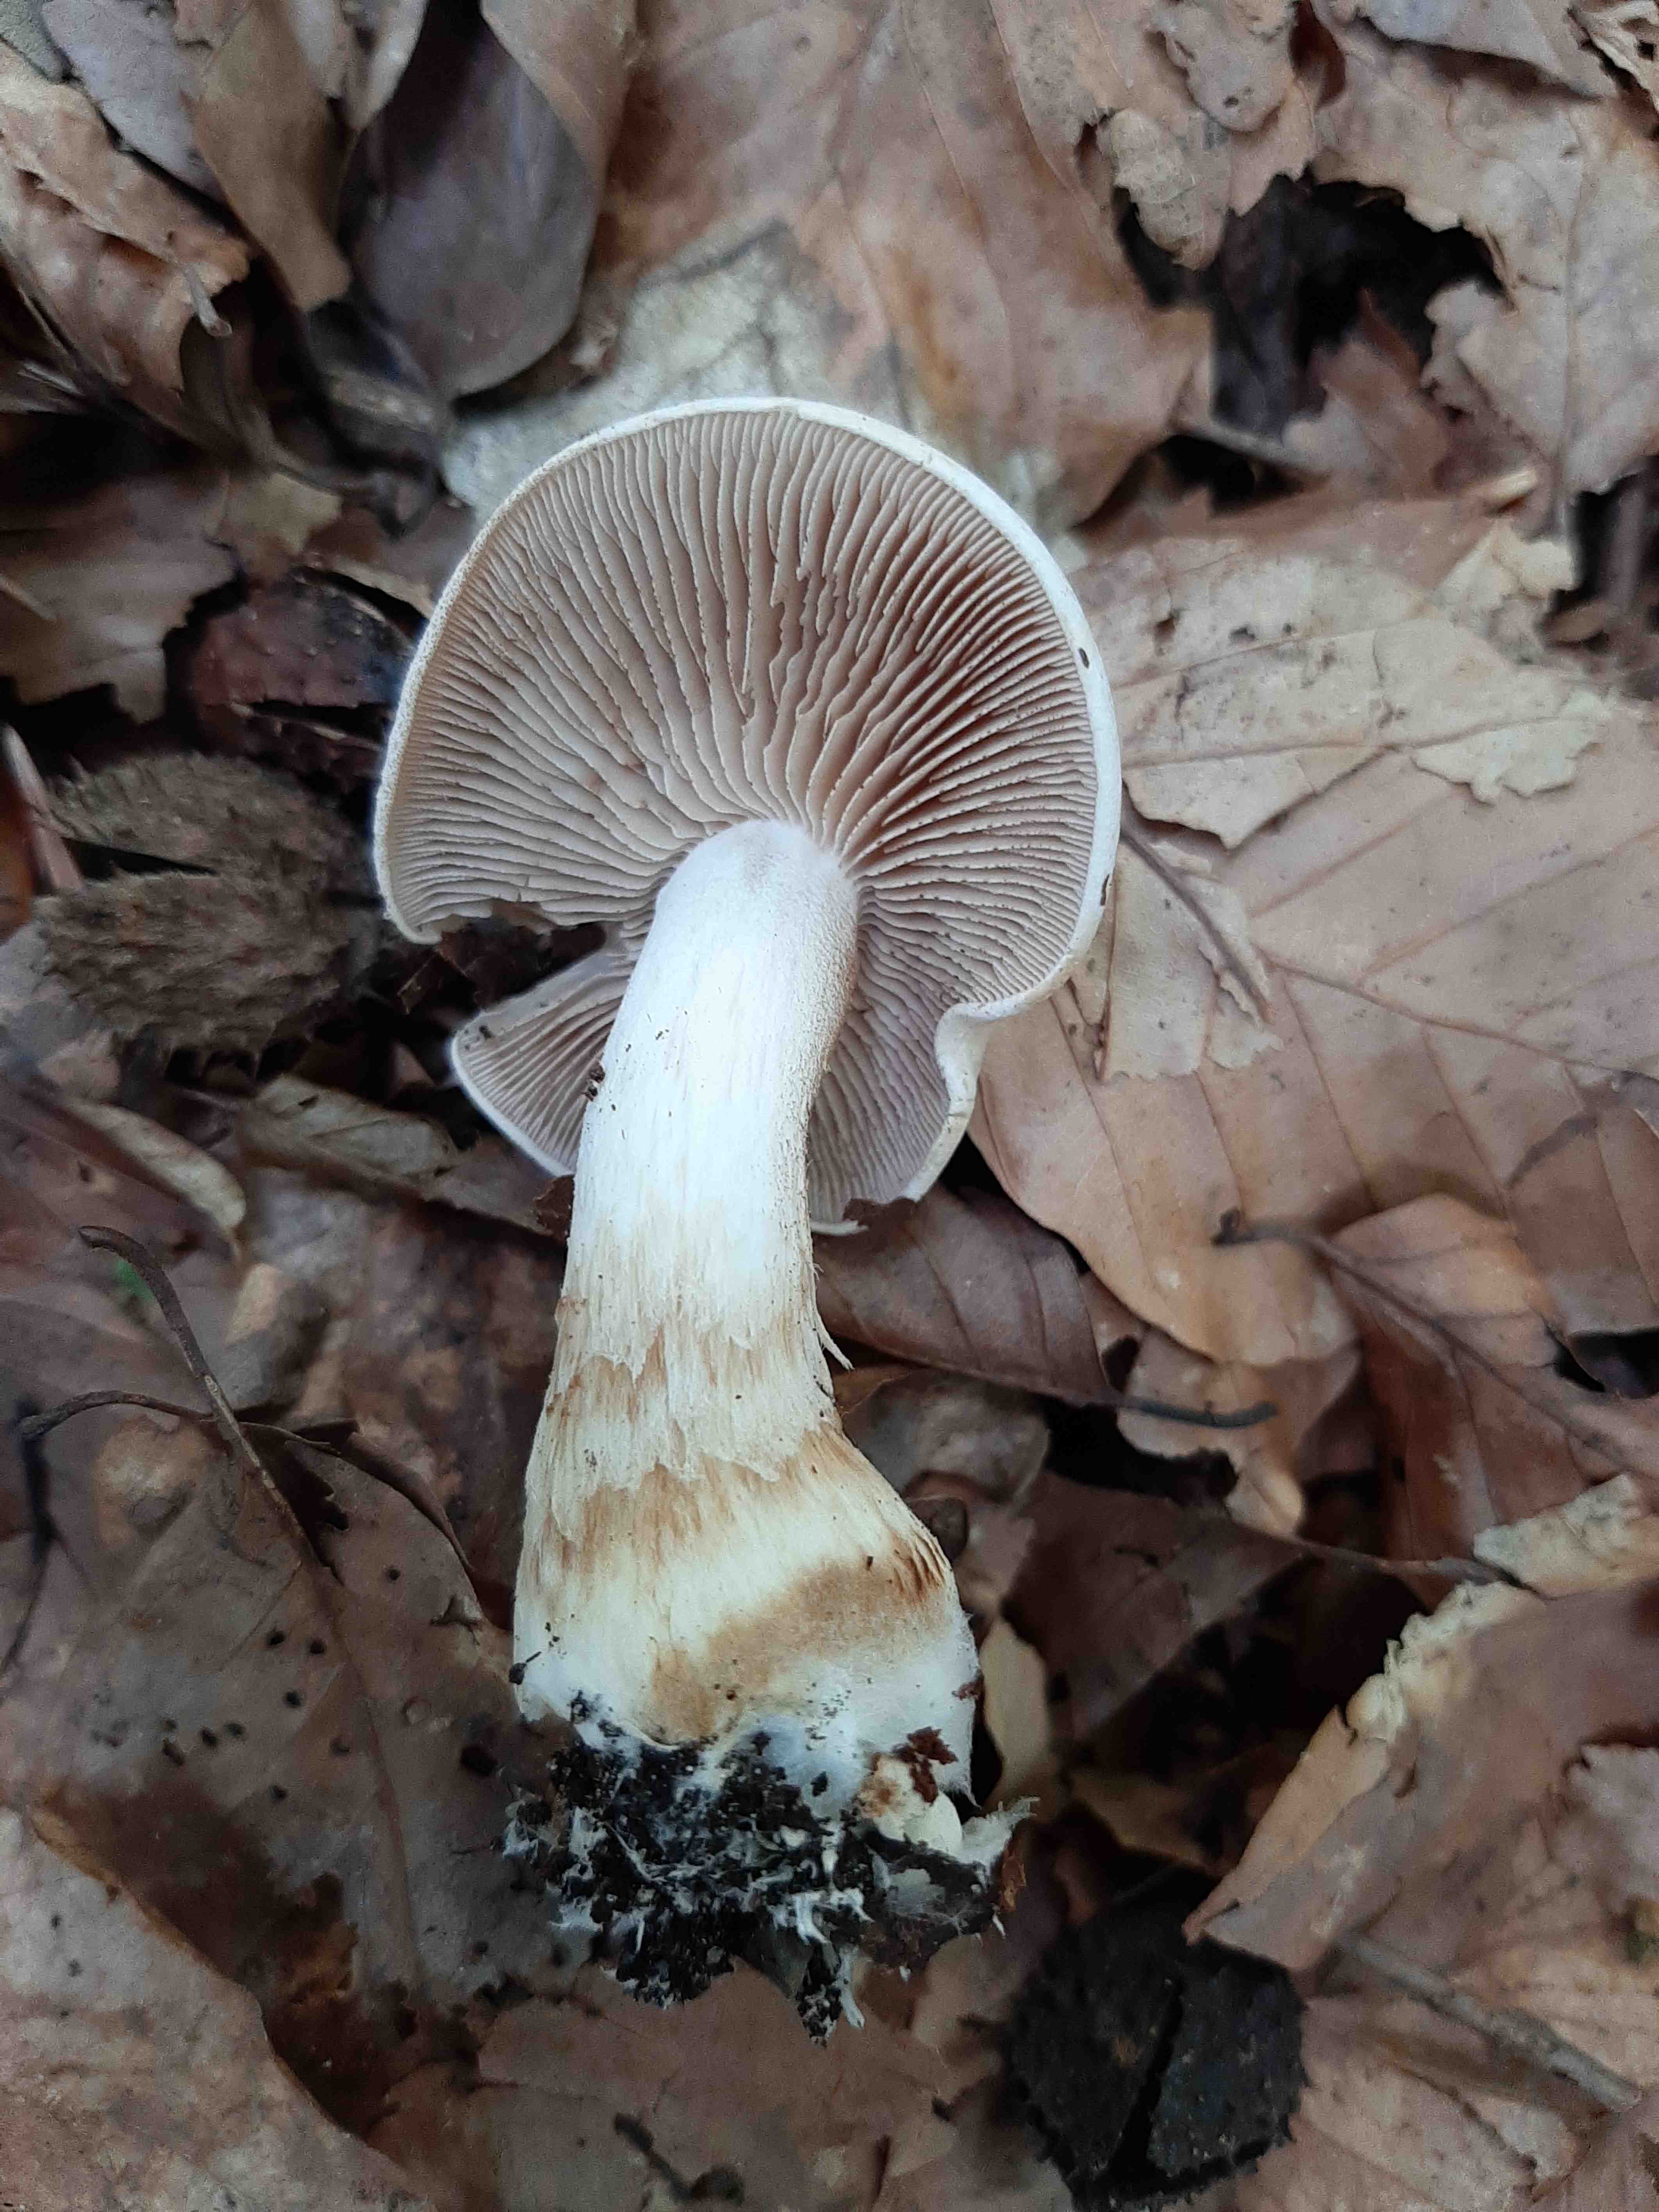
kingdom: Fungi
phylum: Basidiomycota
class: Agaricomycetes
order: Agaricales
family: Hymenogastraceae
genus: Hebeloma
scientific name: Hebeloma sinapizans
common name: ræddike-tåreblad
